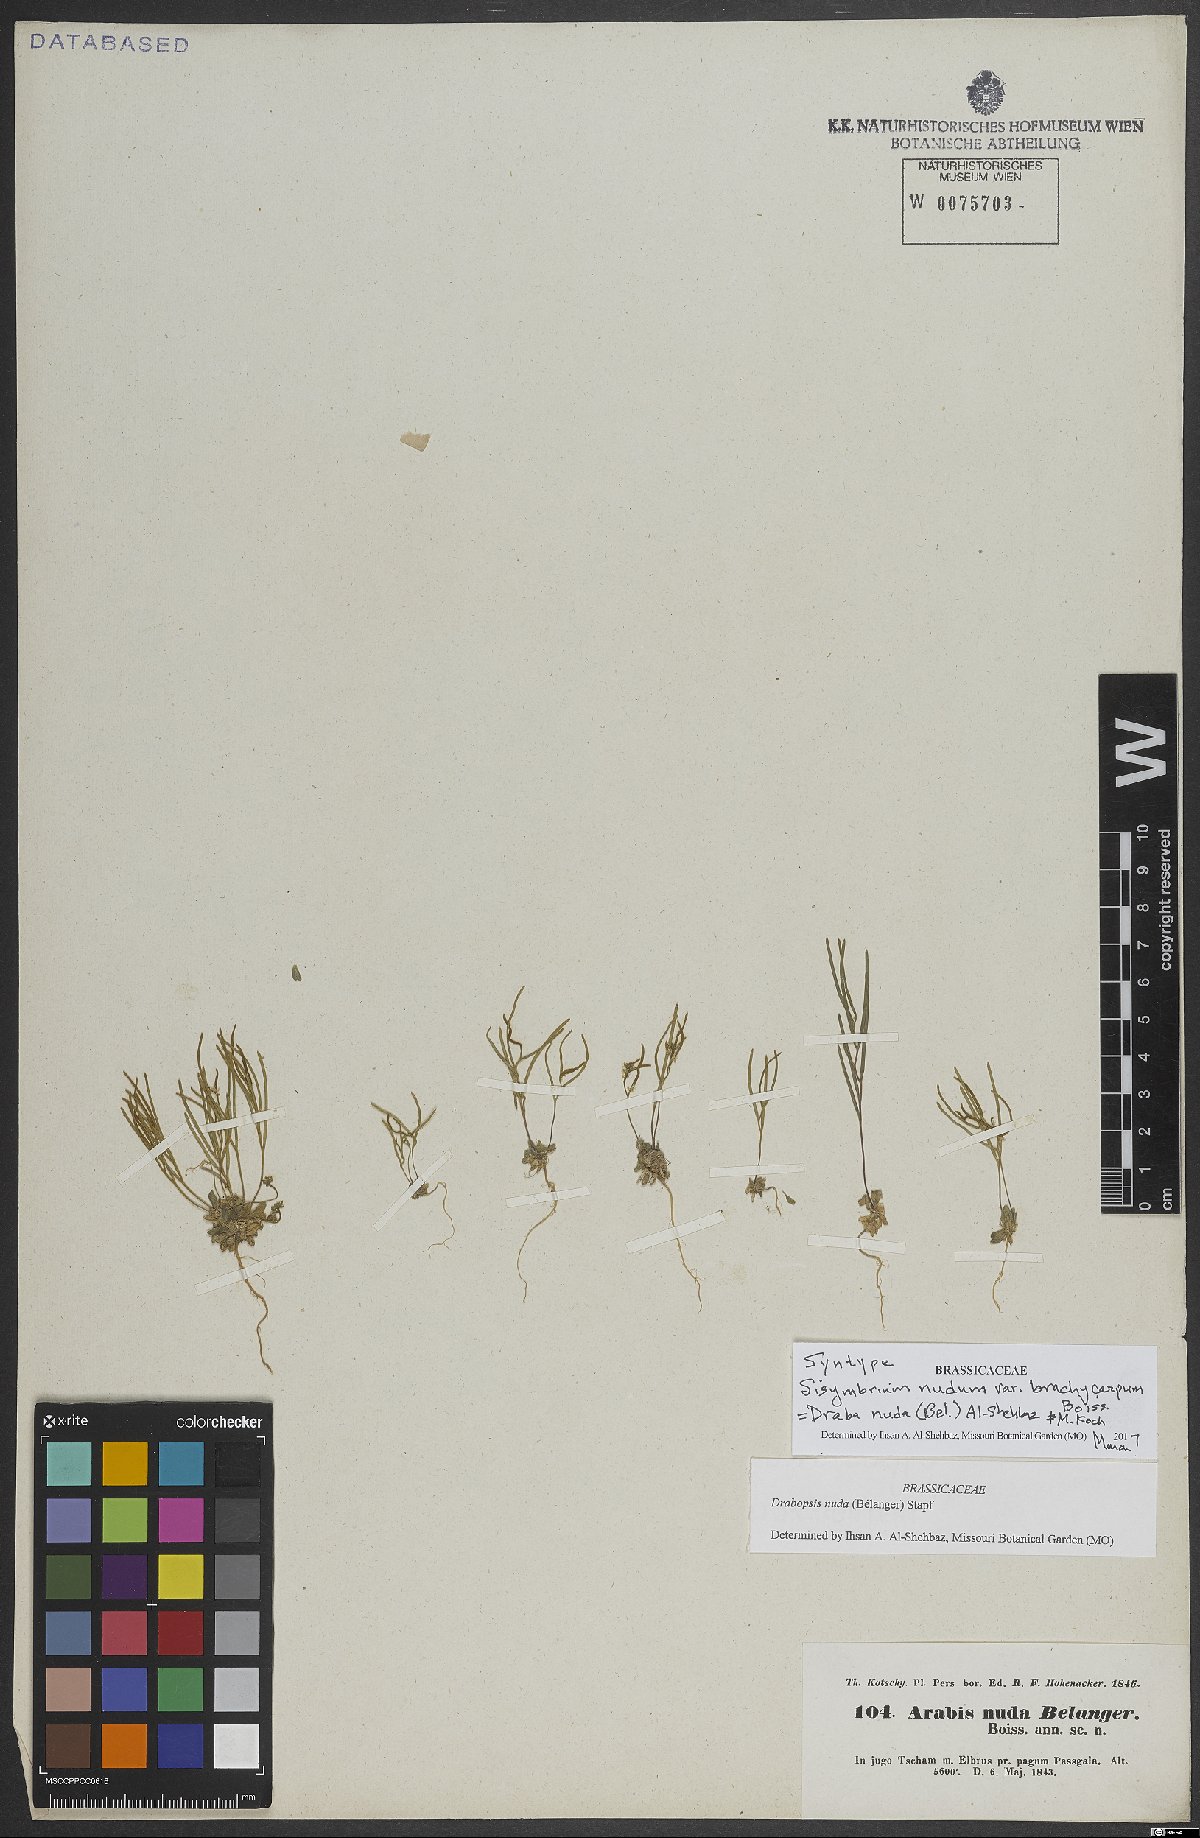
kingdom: Plantae
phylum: Tracheophyta
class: Magnoliopsida
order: Brassicales
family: Brassicaceae
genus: Draba
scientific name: Draba nuda
